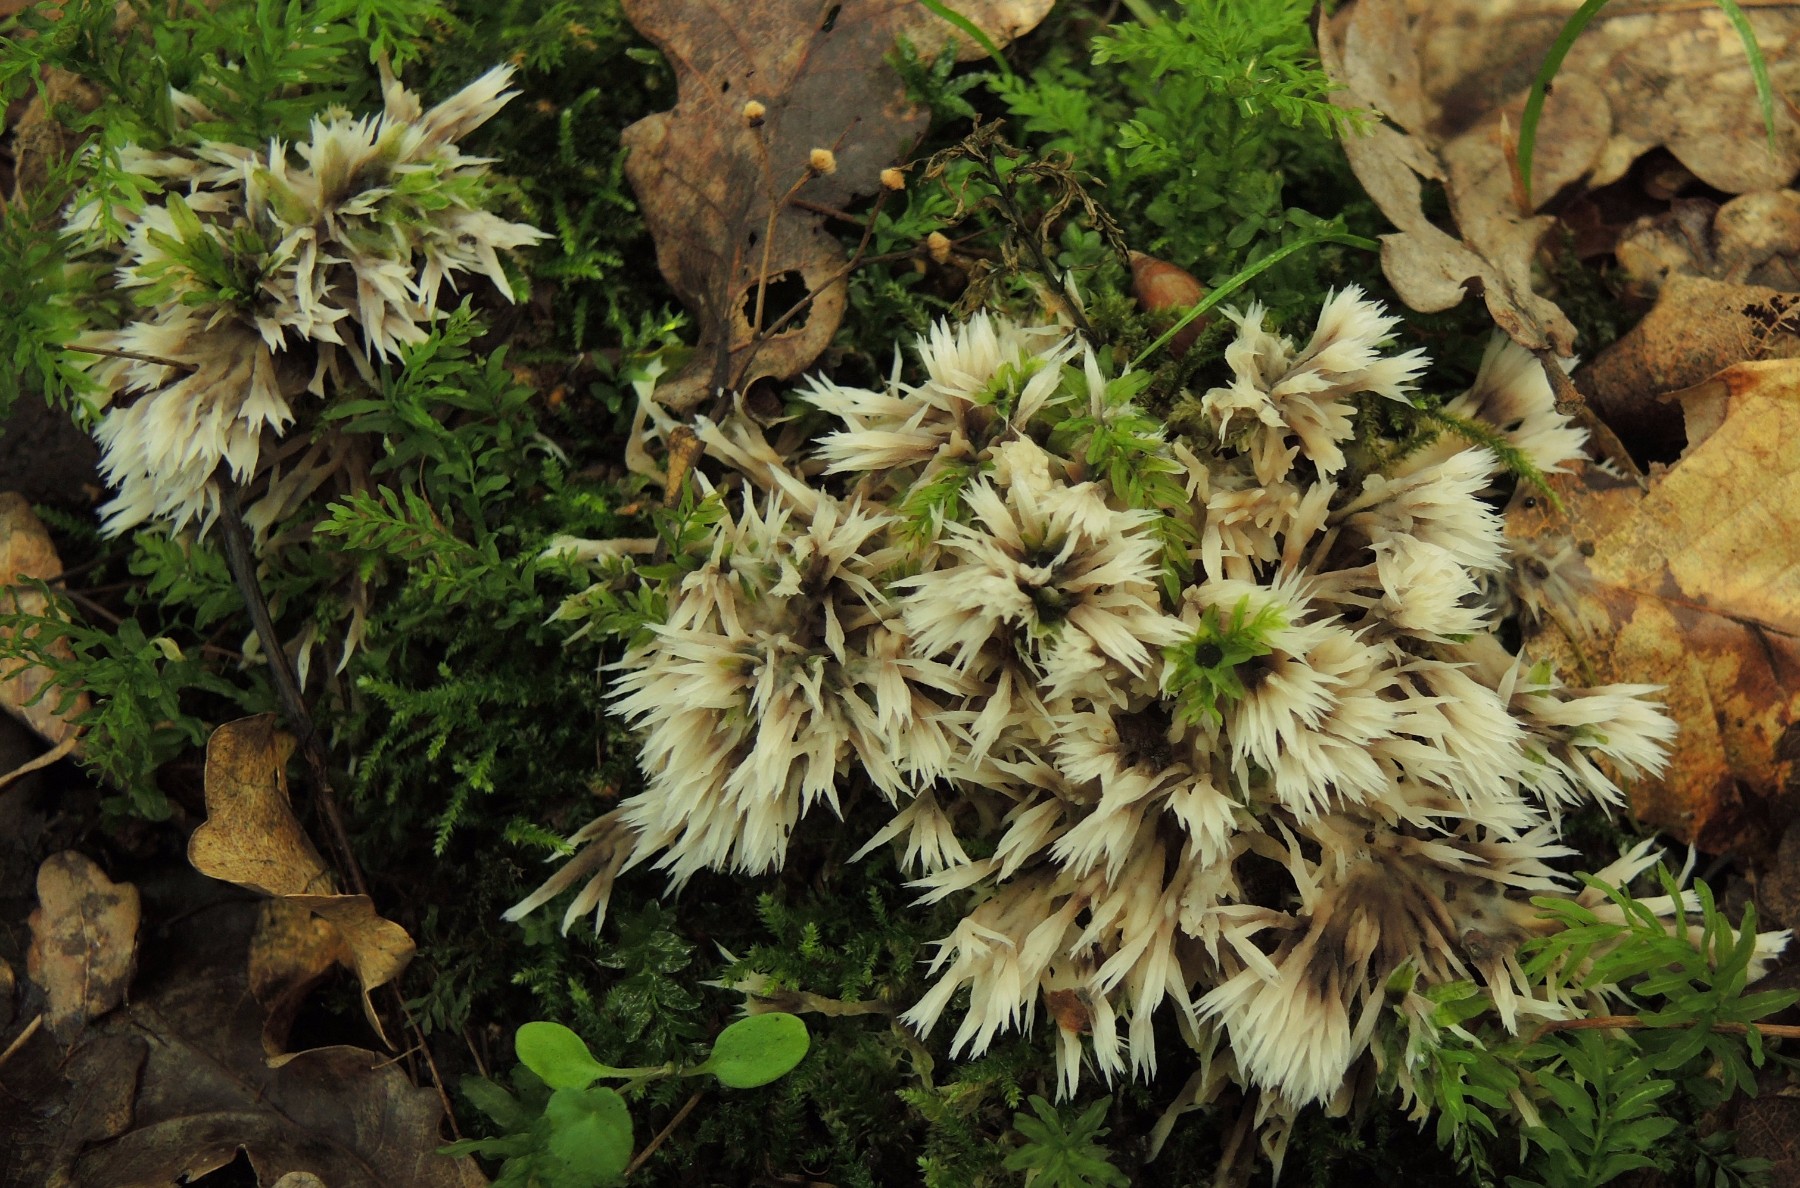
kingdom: Fungi
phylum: Basidiomycota
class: Agaricomycetes
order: Thelephorales
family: Thelephoraceae
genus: Thelephora
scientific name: Thelephora penicillata
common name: fladtrådt frynsesvamp
